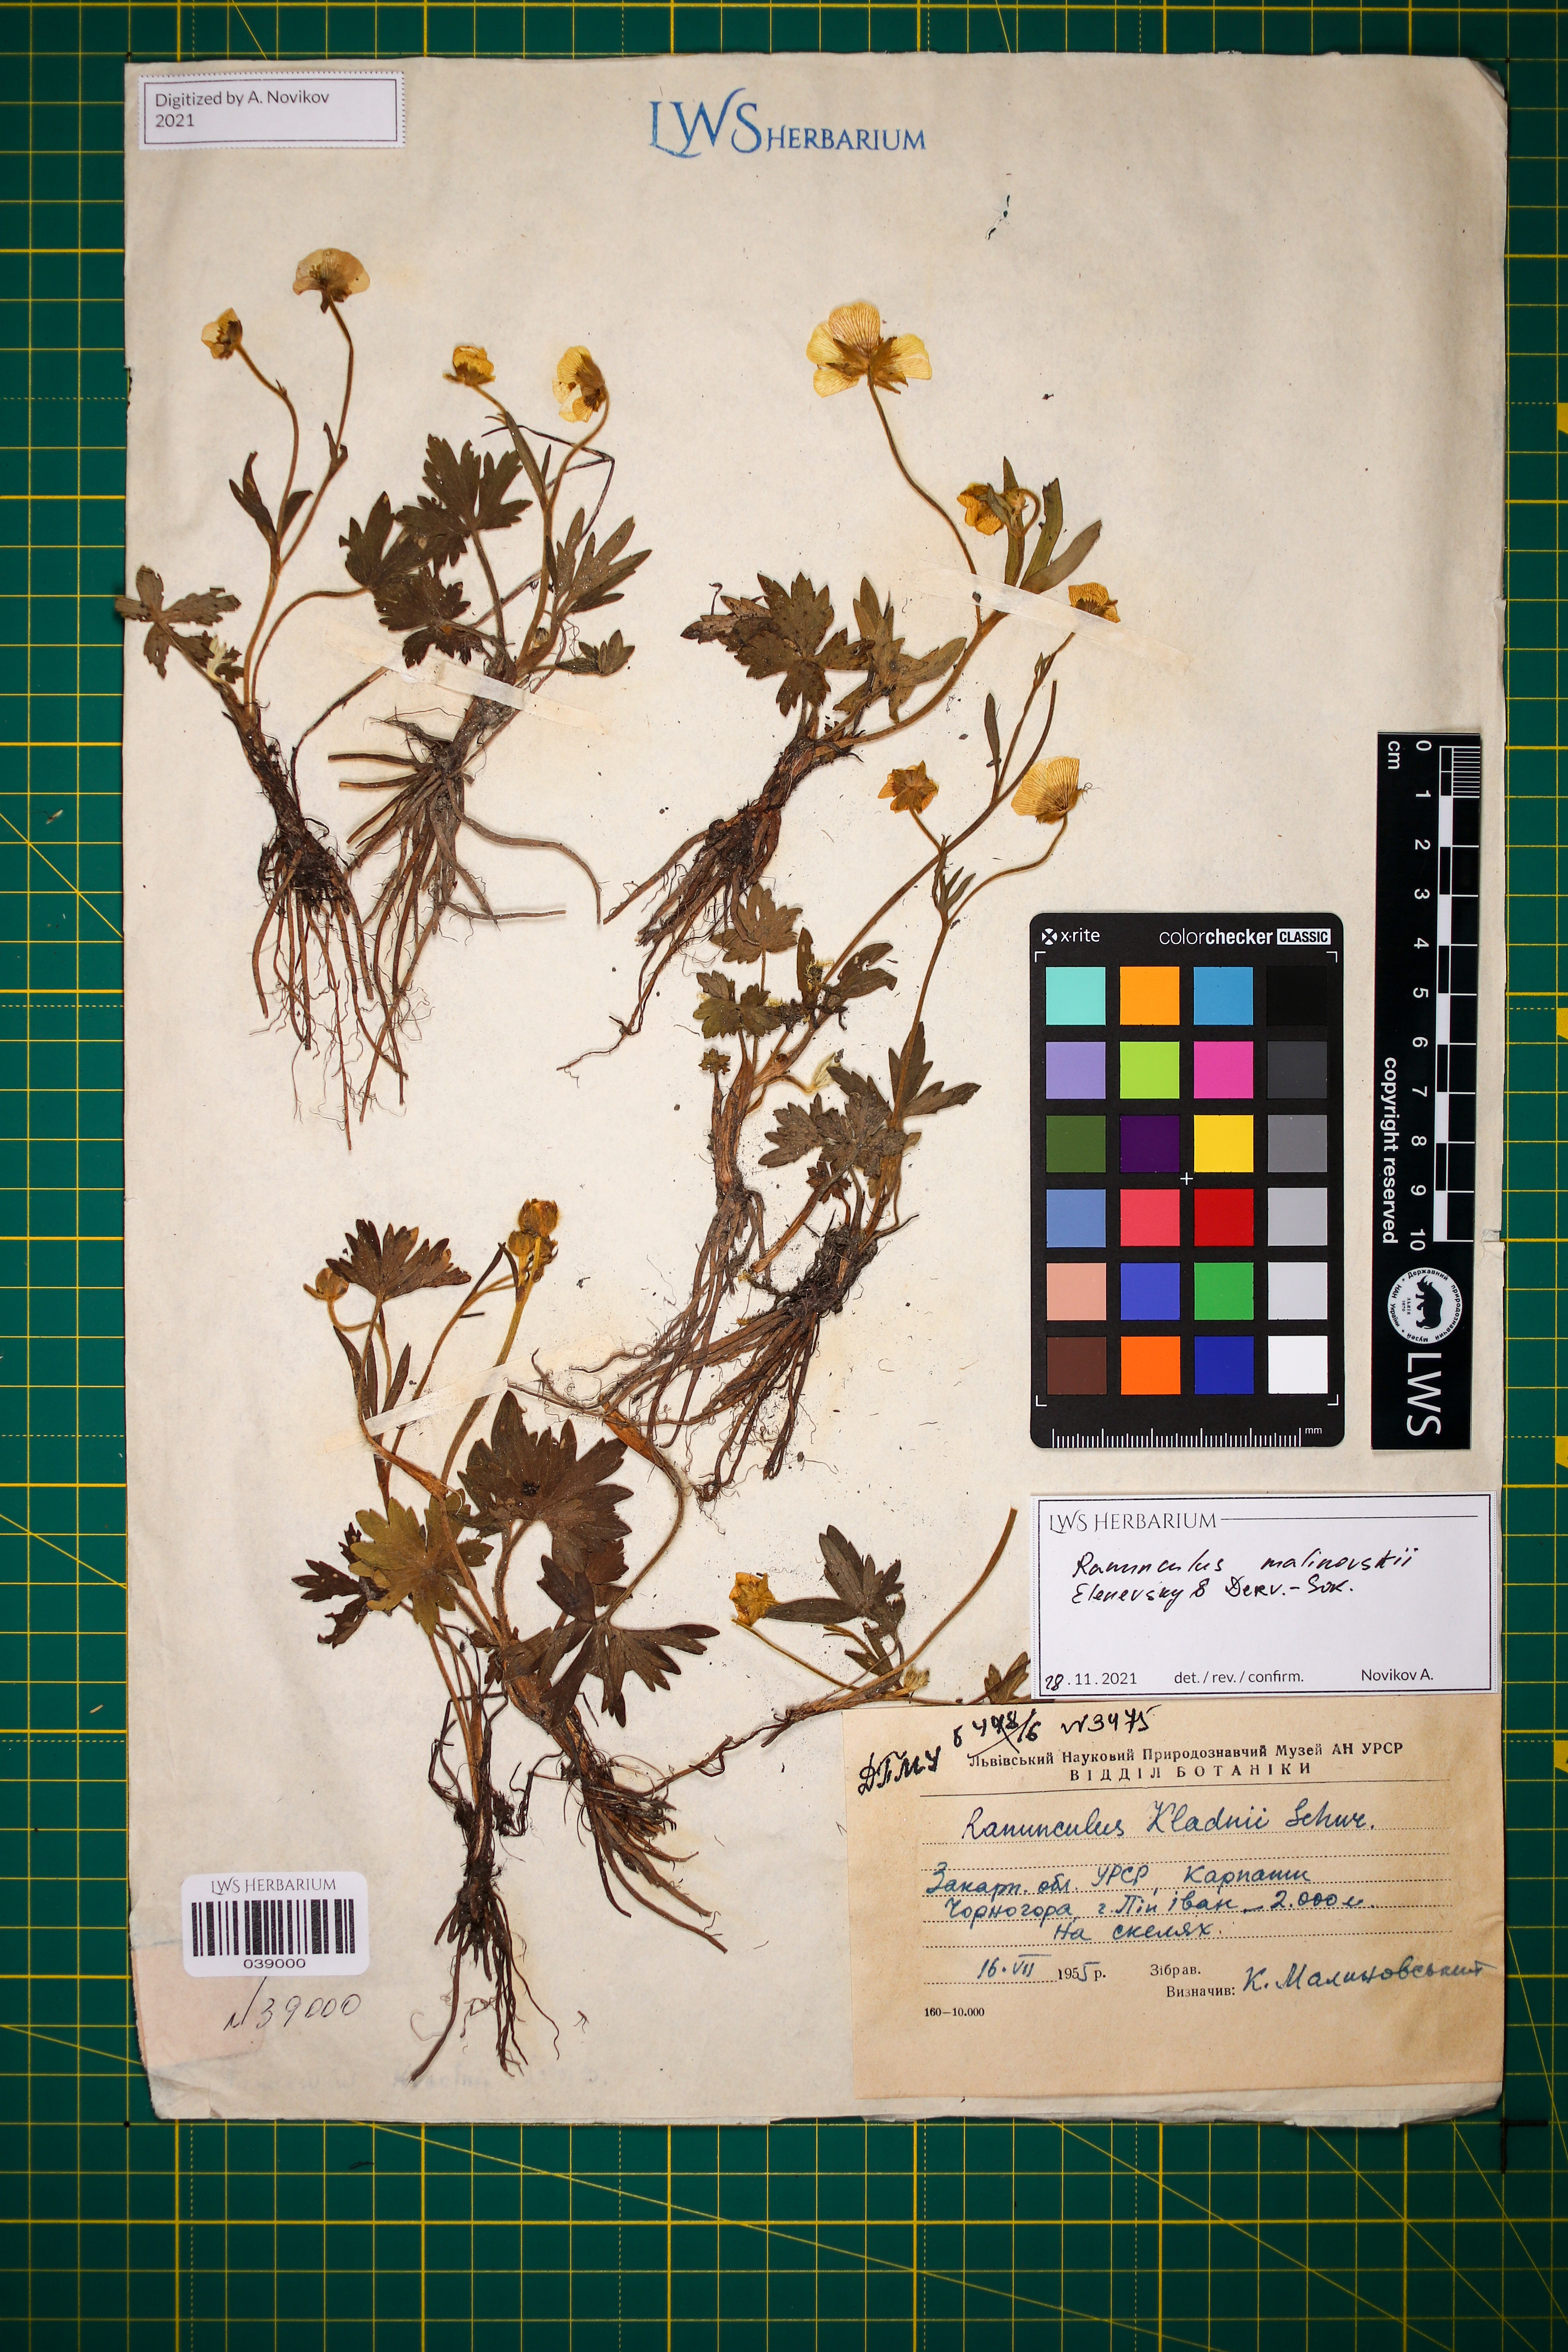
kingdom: Plantae
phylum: Tracheophyta
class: Magnoliopsida
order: Ranunculales
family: Ranunculaceae
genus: Ranunculus
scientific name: Ranunculus malinovskii
